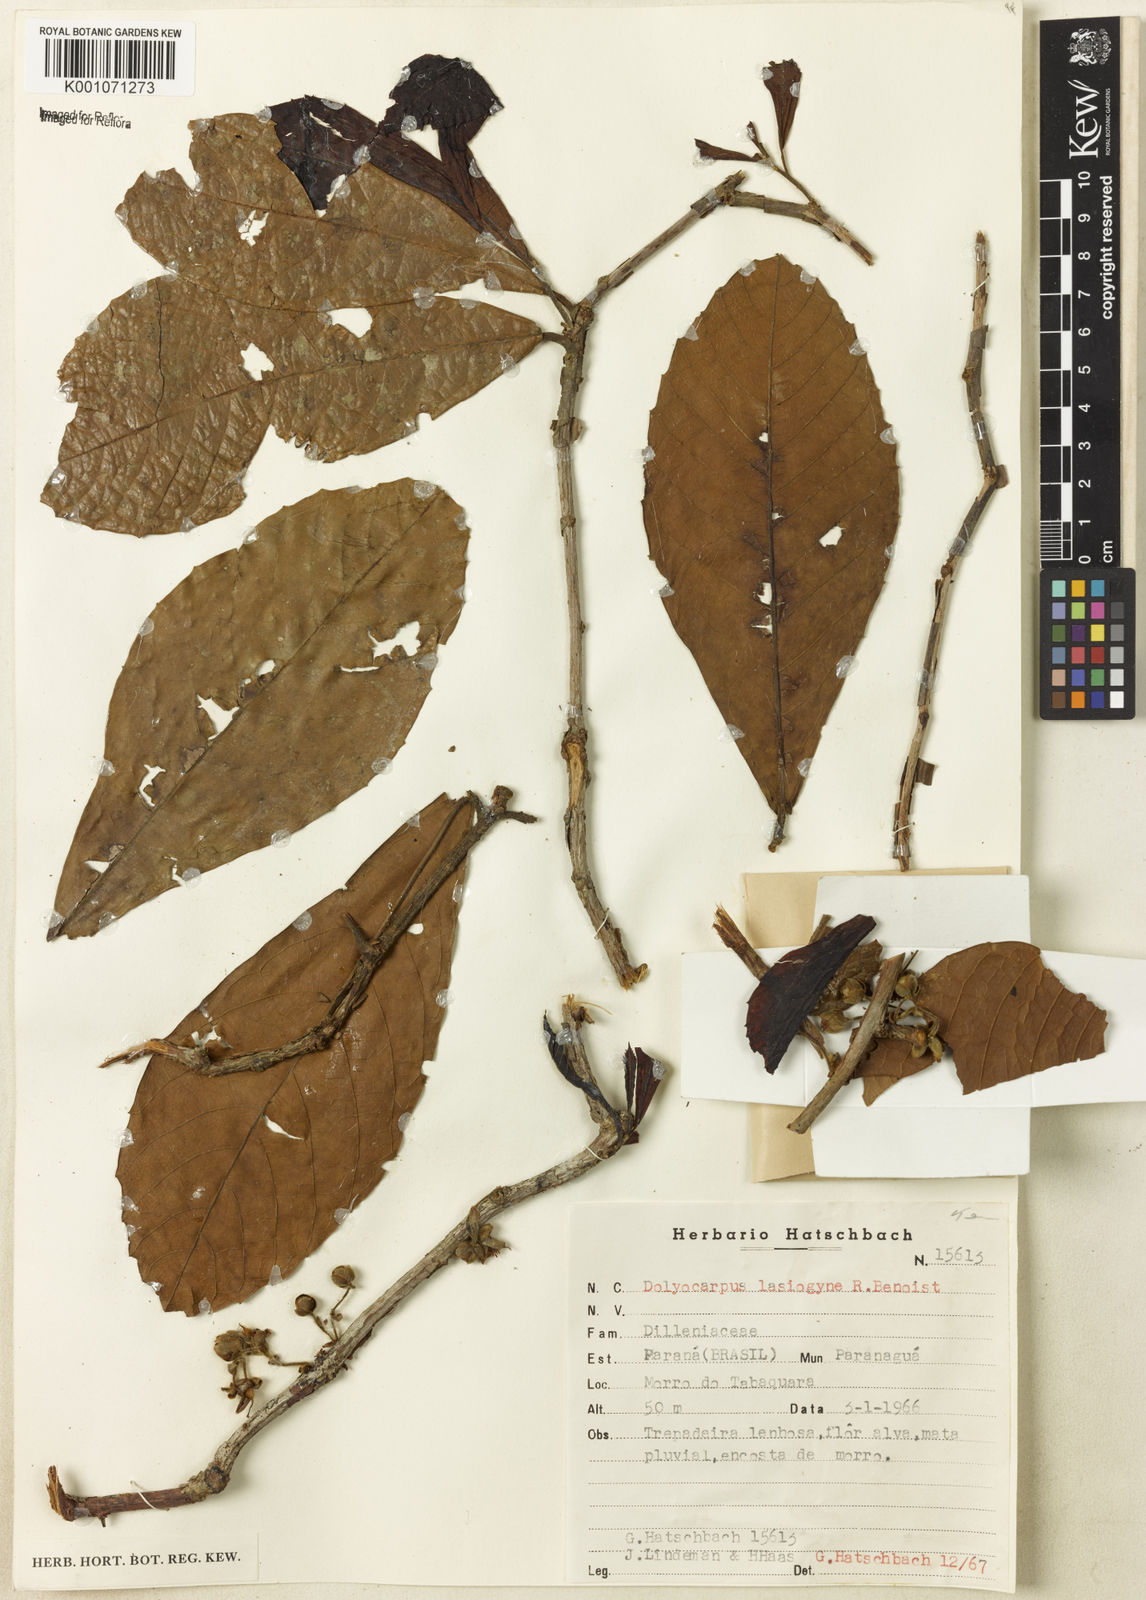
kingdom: Plantae
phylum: Tracheophyta
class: Magnoliopsida
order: Dilleniales
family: Dilleniaceae
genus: Doliocarpus
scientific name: Doliocarpus schottianus
